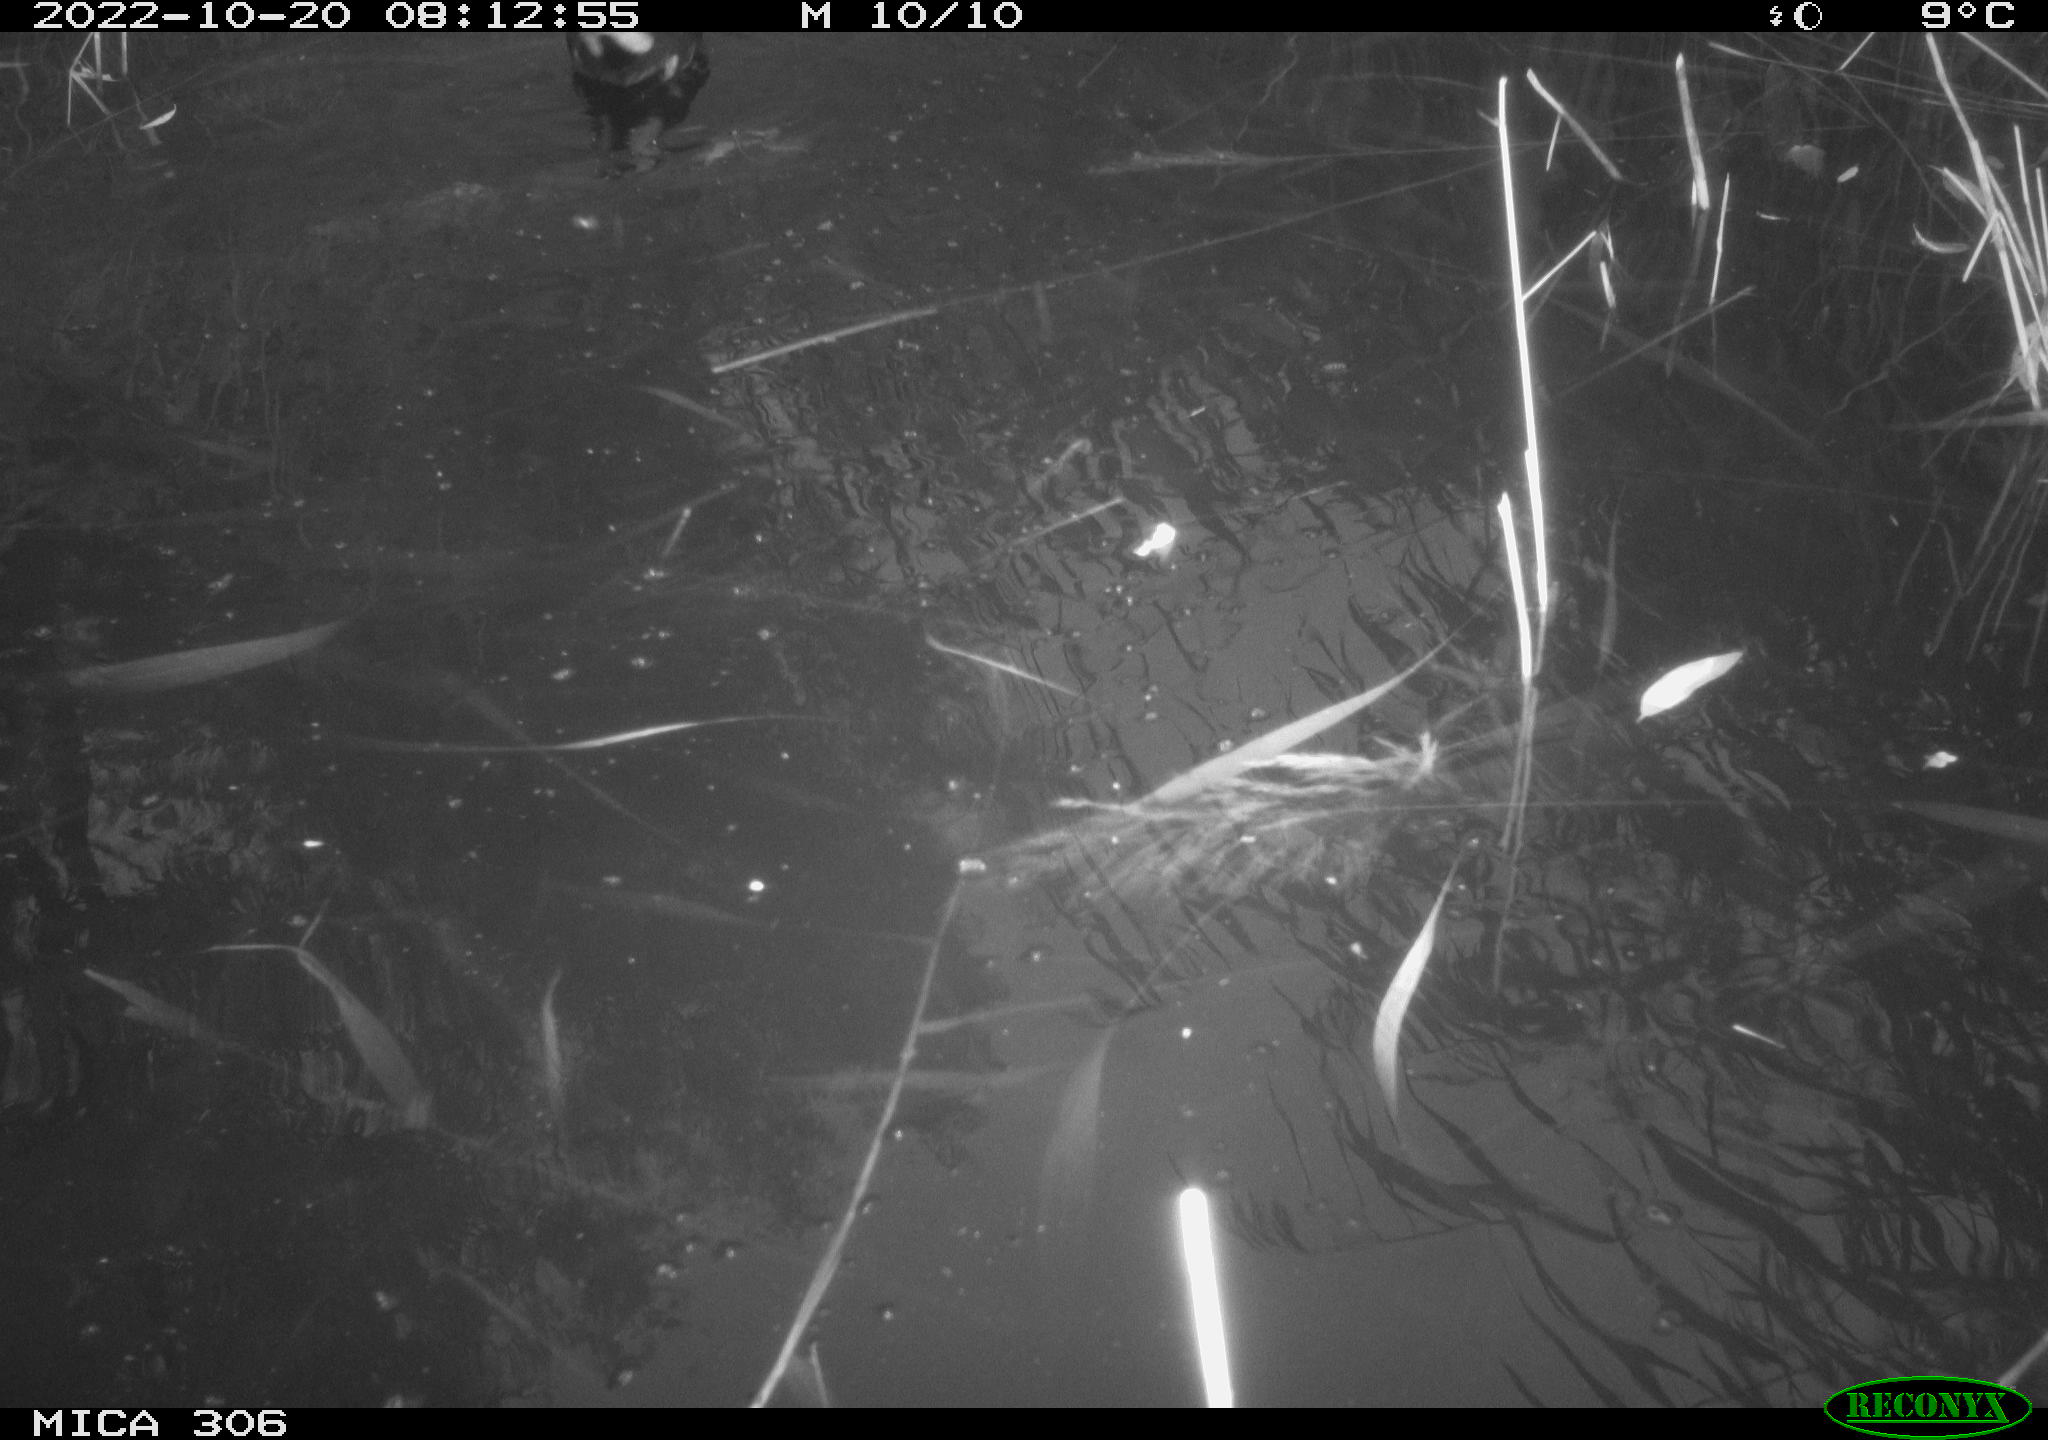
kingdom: Animalia
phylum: Chordata
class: Aves
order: Gruiformes
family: Rallidae
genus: Gallinula
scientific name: Gallinula chloropus
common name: Common moorhen
